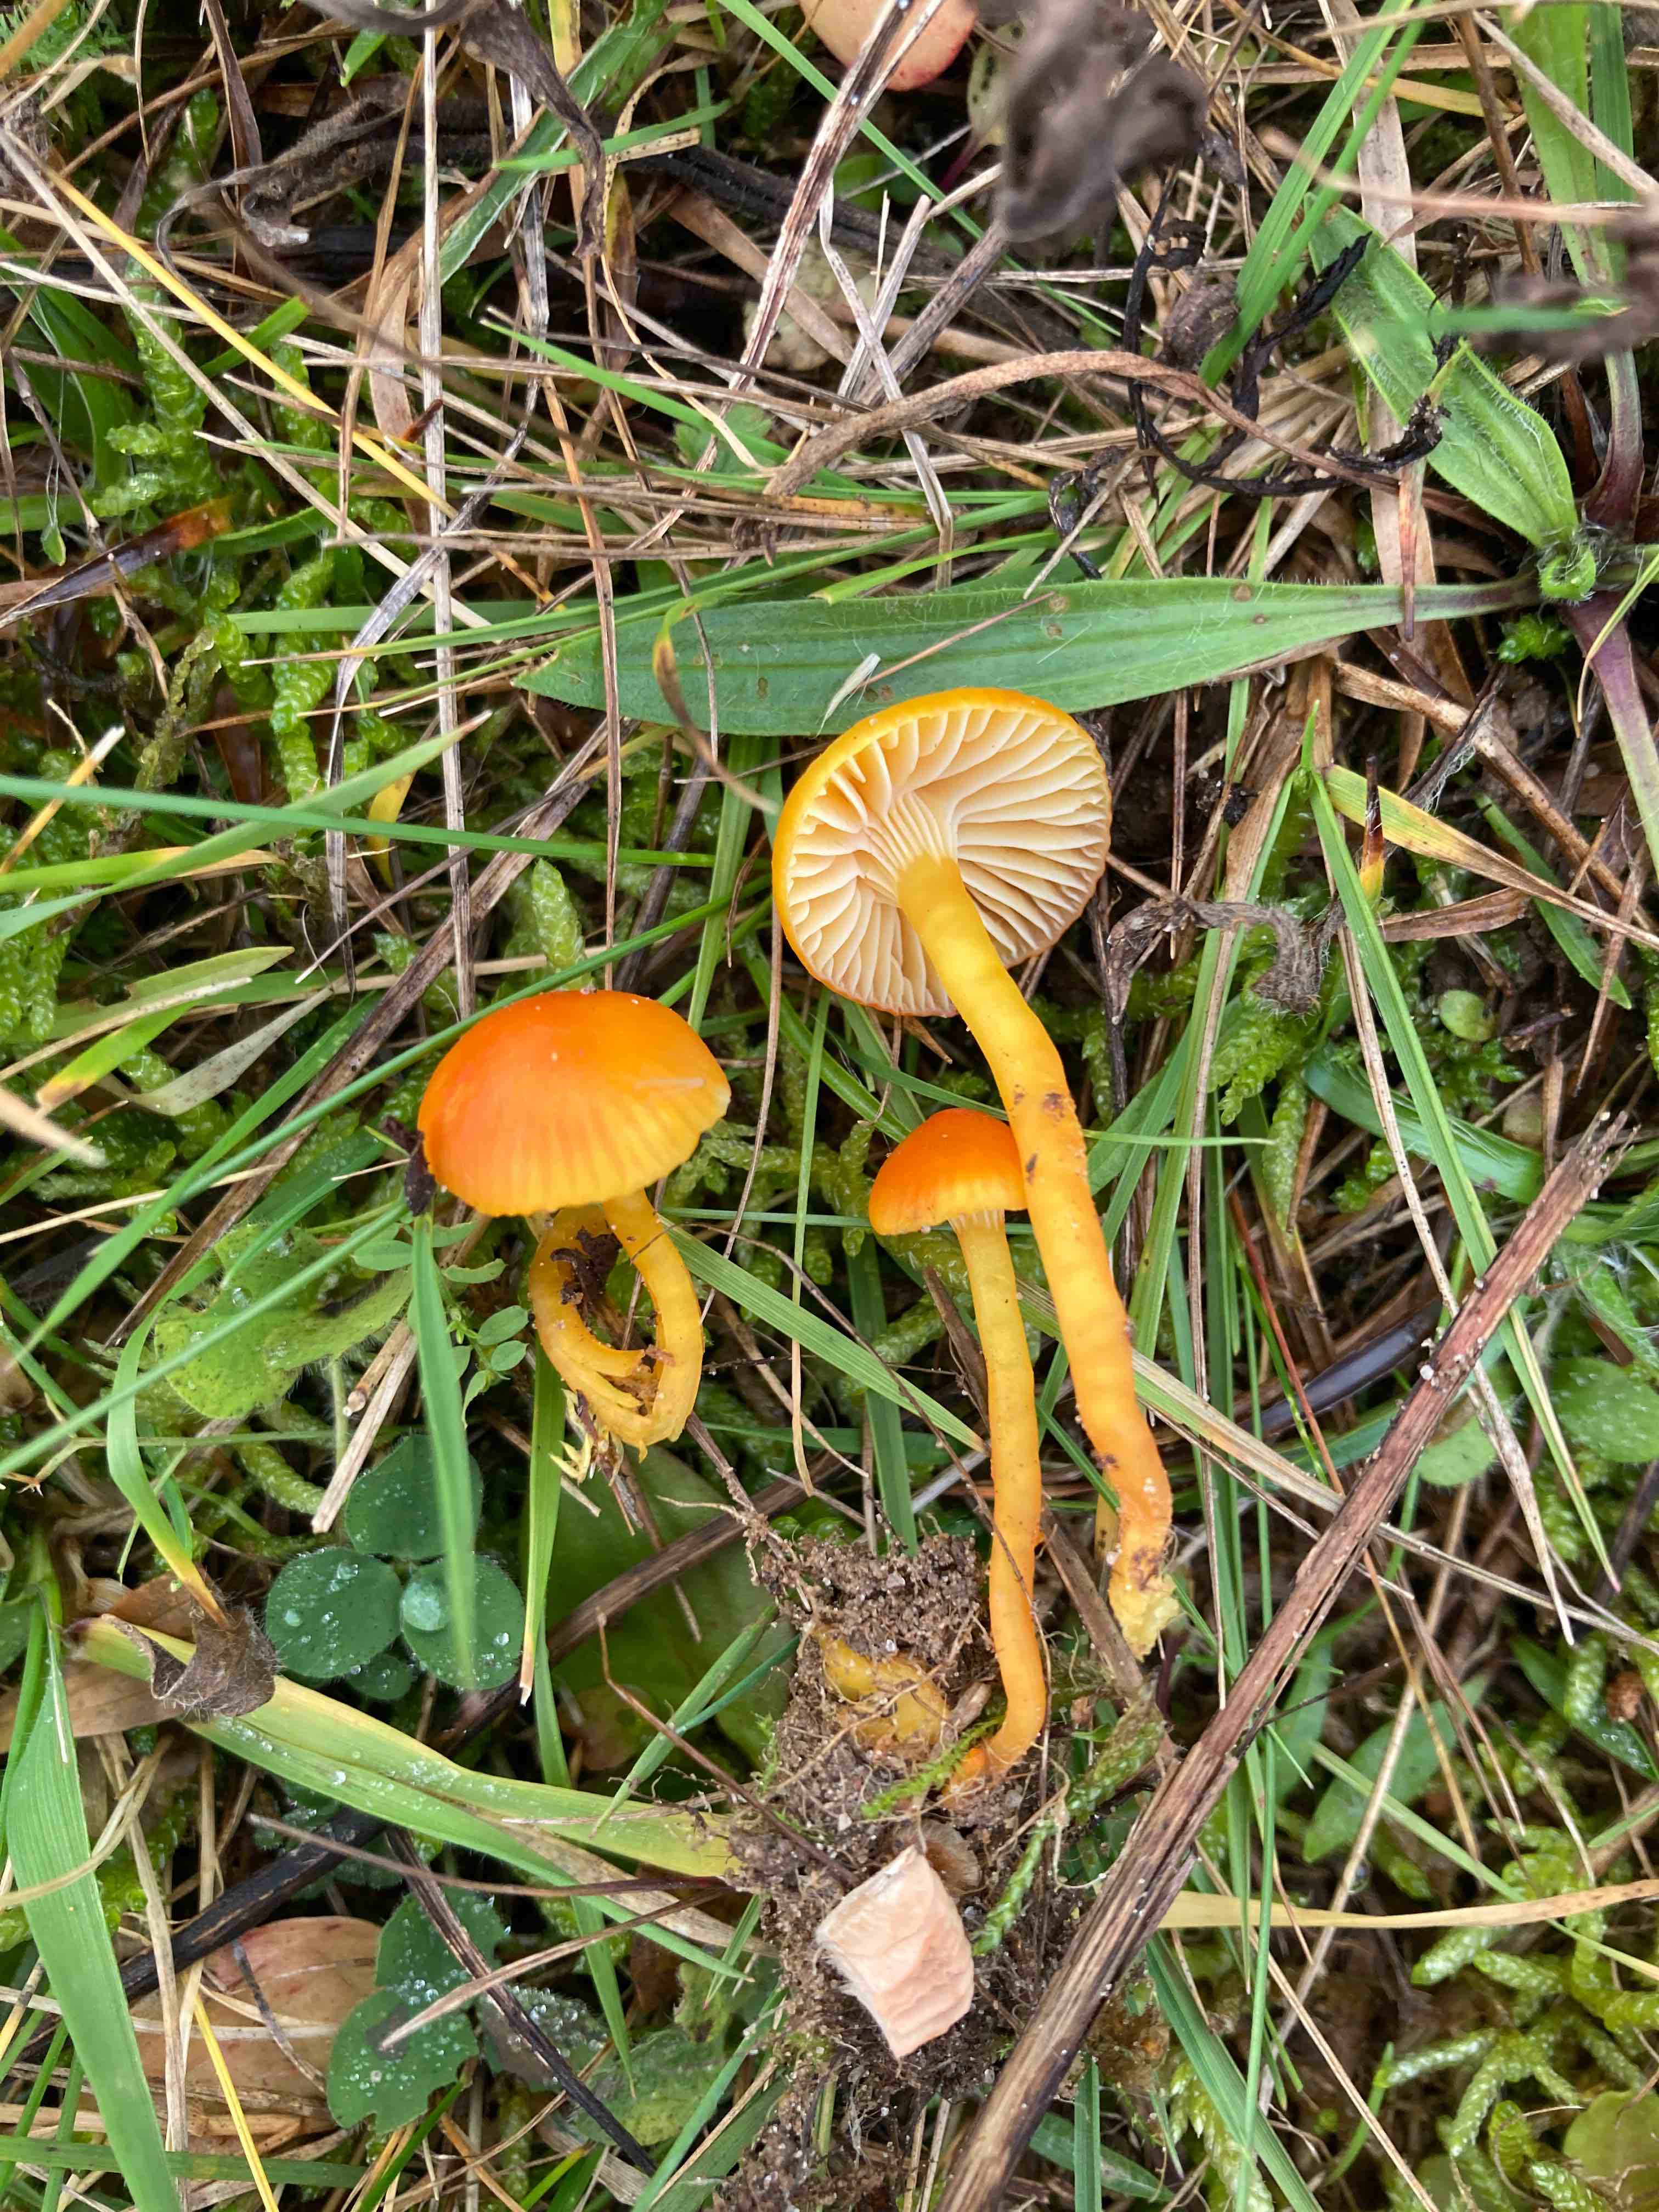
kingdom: Fungi
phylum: Basidiomycota
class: Agaricomycetes
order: Agaricales
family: Hygrophoraceae
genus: Hygrocybe
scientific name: Hygrocybe mucronella
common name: bitter vokshat
